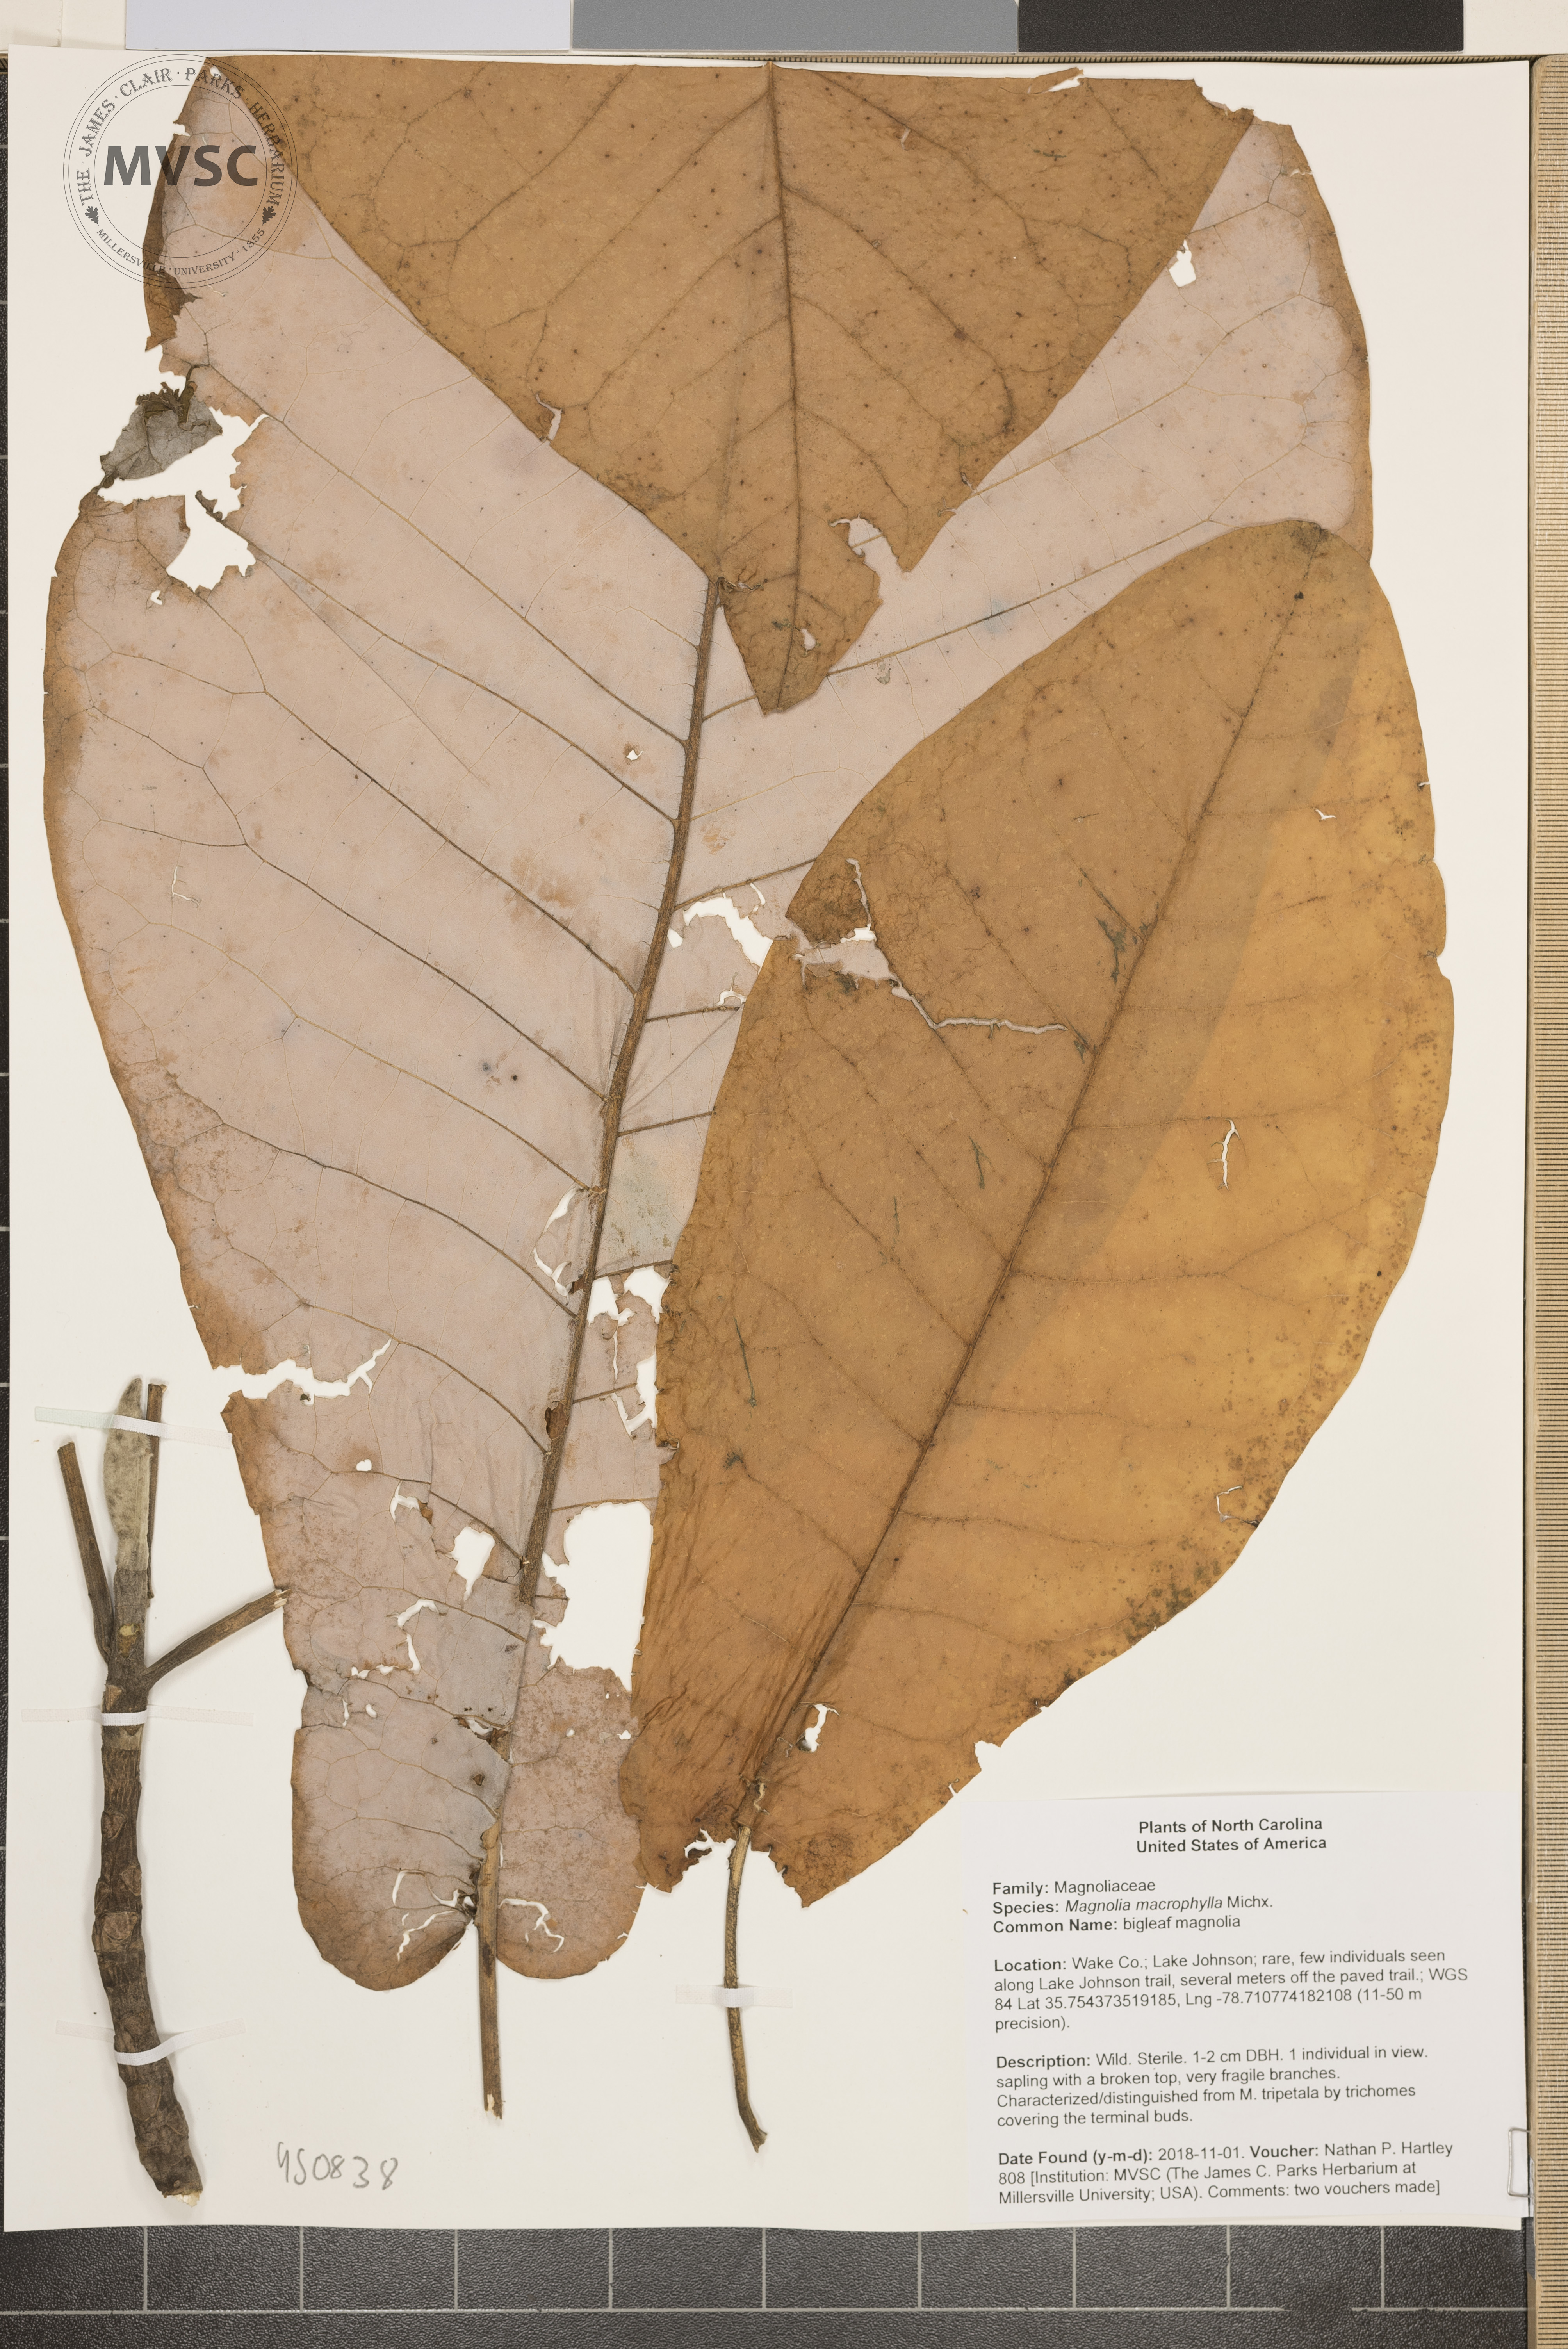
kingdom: Plantae
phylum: Tracheophyta
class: Magnoliopsida
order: Magnoliales
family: Magnoliaceae
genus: Magnolia
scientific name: Magnolia macrophylla
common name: bigleaf magnolia
